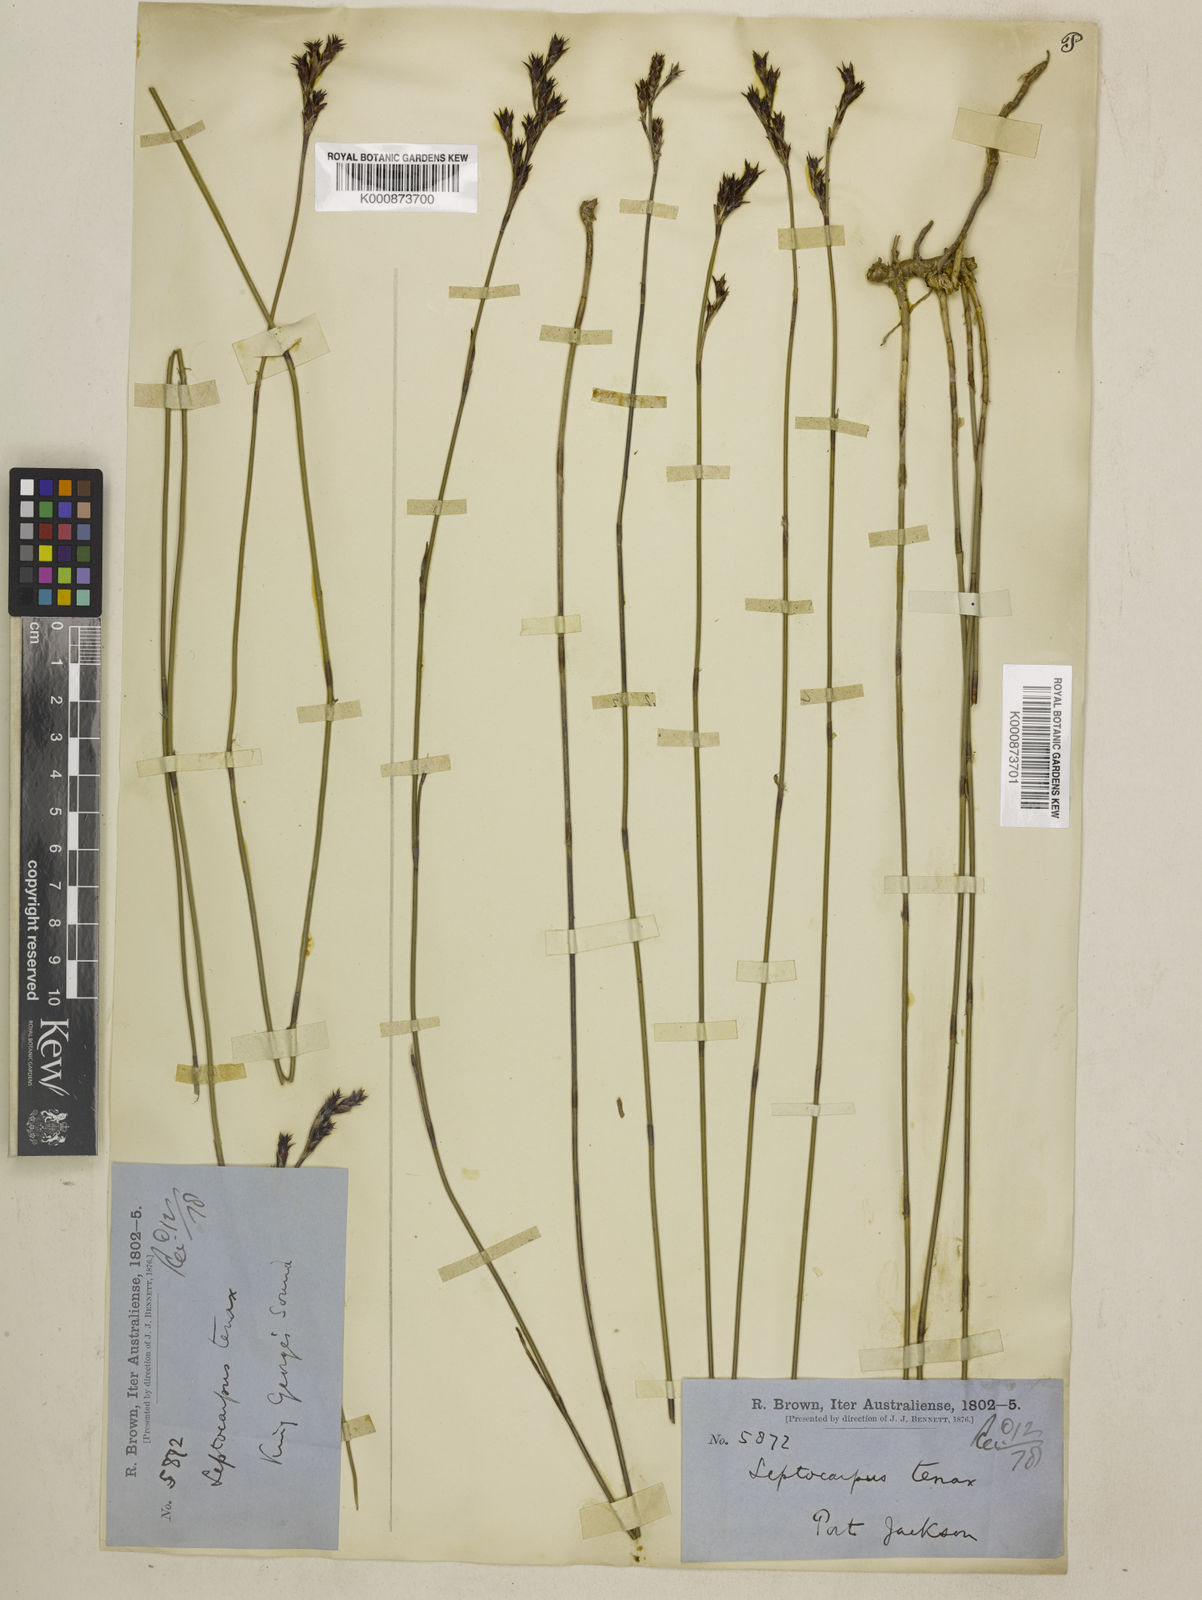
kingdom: Plantae
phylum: Tracheophyta
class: Liliopsida
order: Poales
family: Restionaceae
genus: Leptocarpus
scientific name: Leptocarpus tenax
